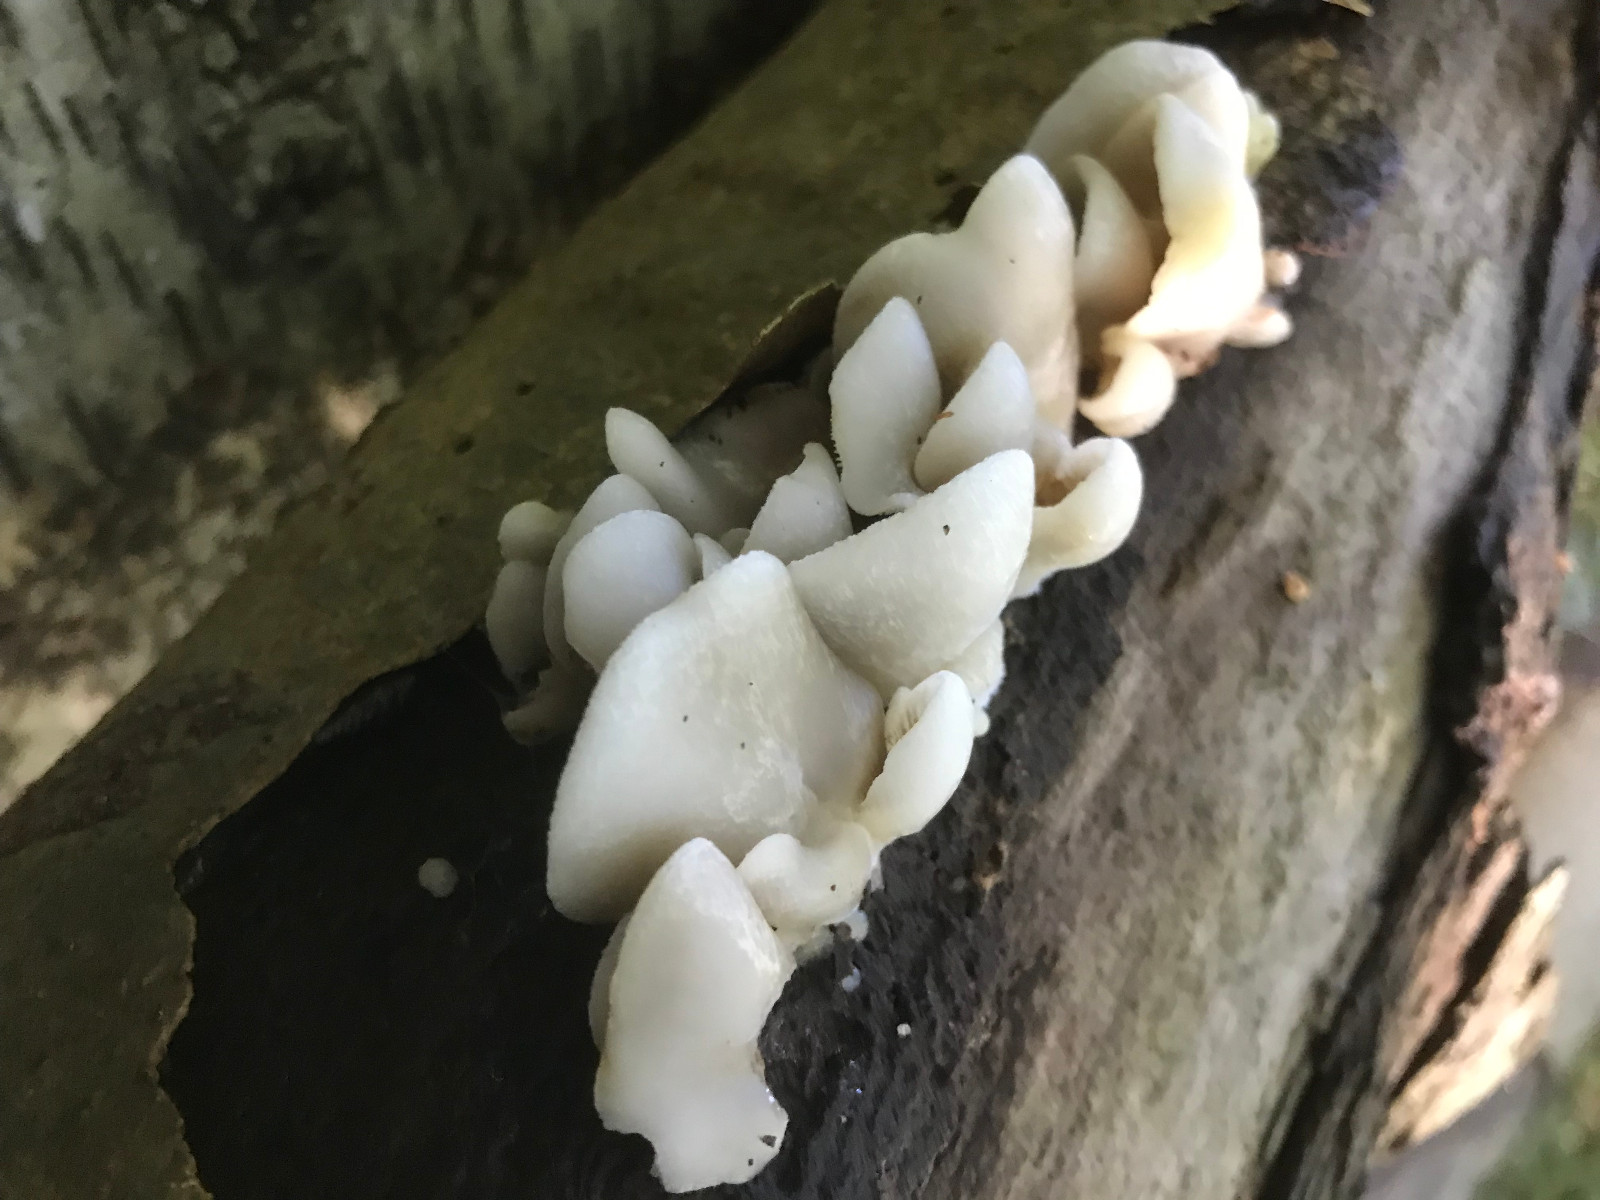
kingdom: Fungi
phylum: Basidiomycota
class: Agaricomycetes
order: Agaricales
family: Crepidotaceae
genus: Crepidotus
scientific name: Crepidotus mollis
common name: blød muslingesvamp
